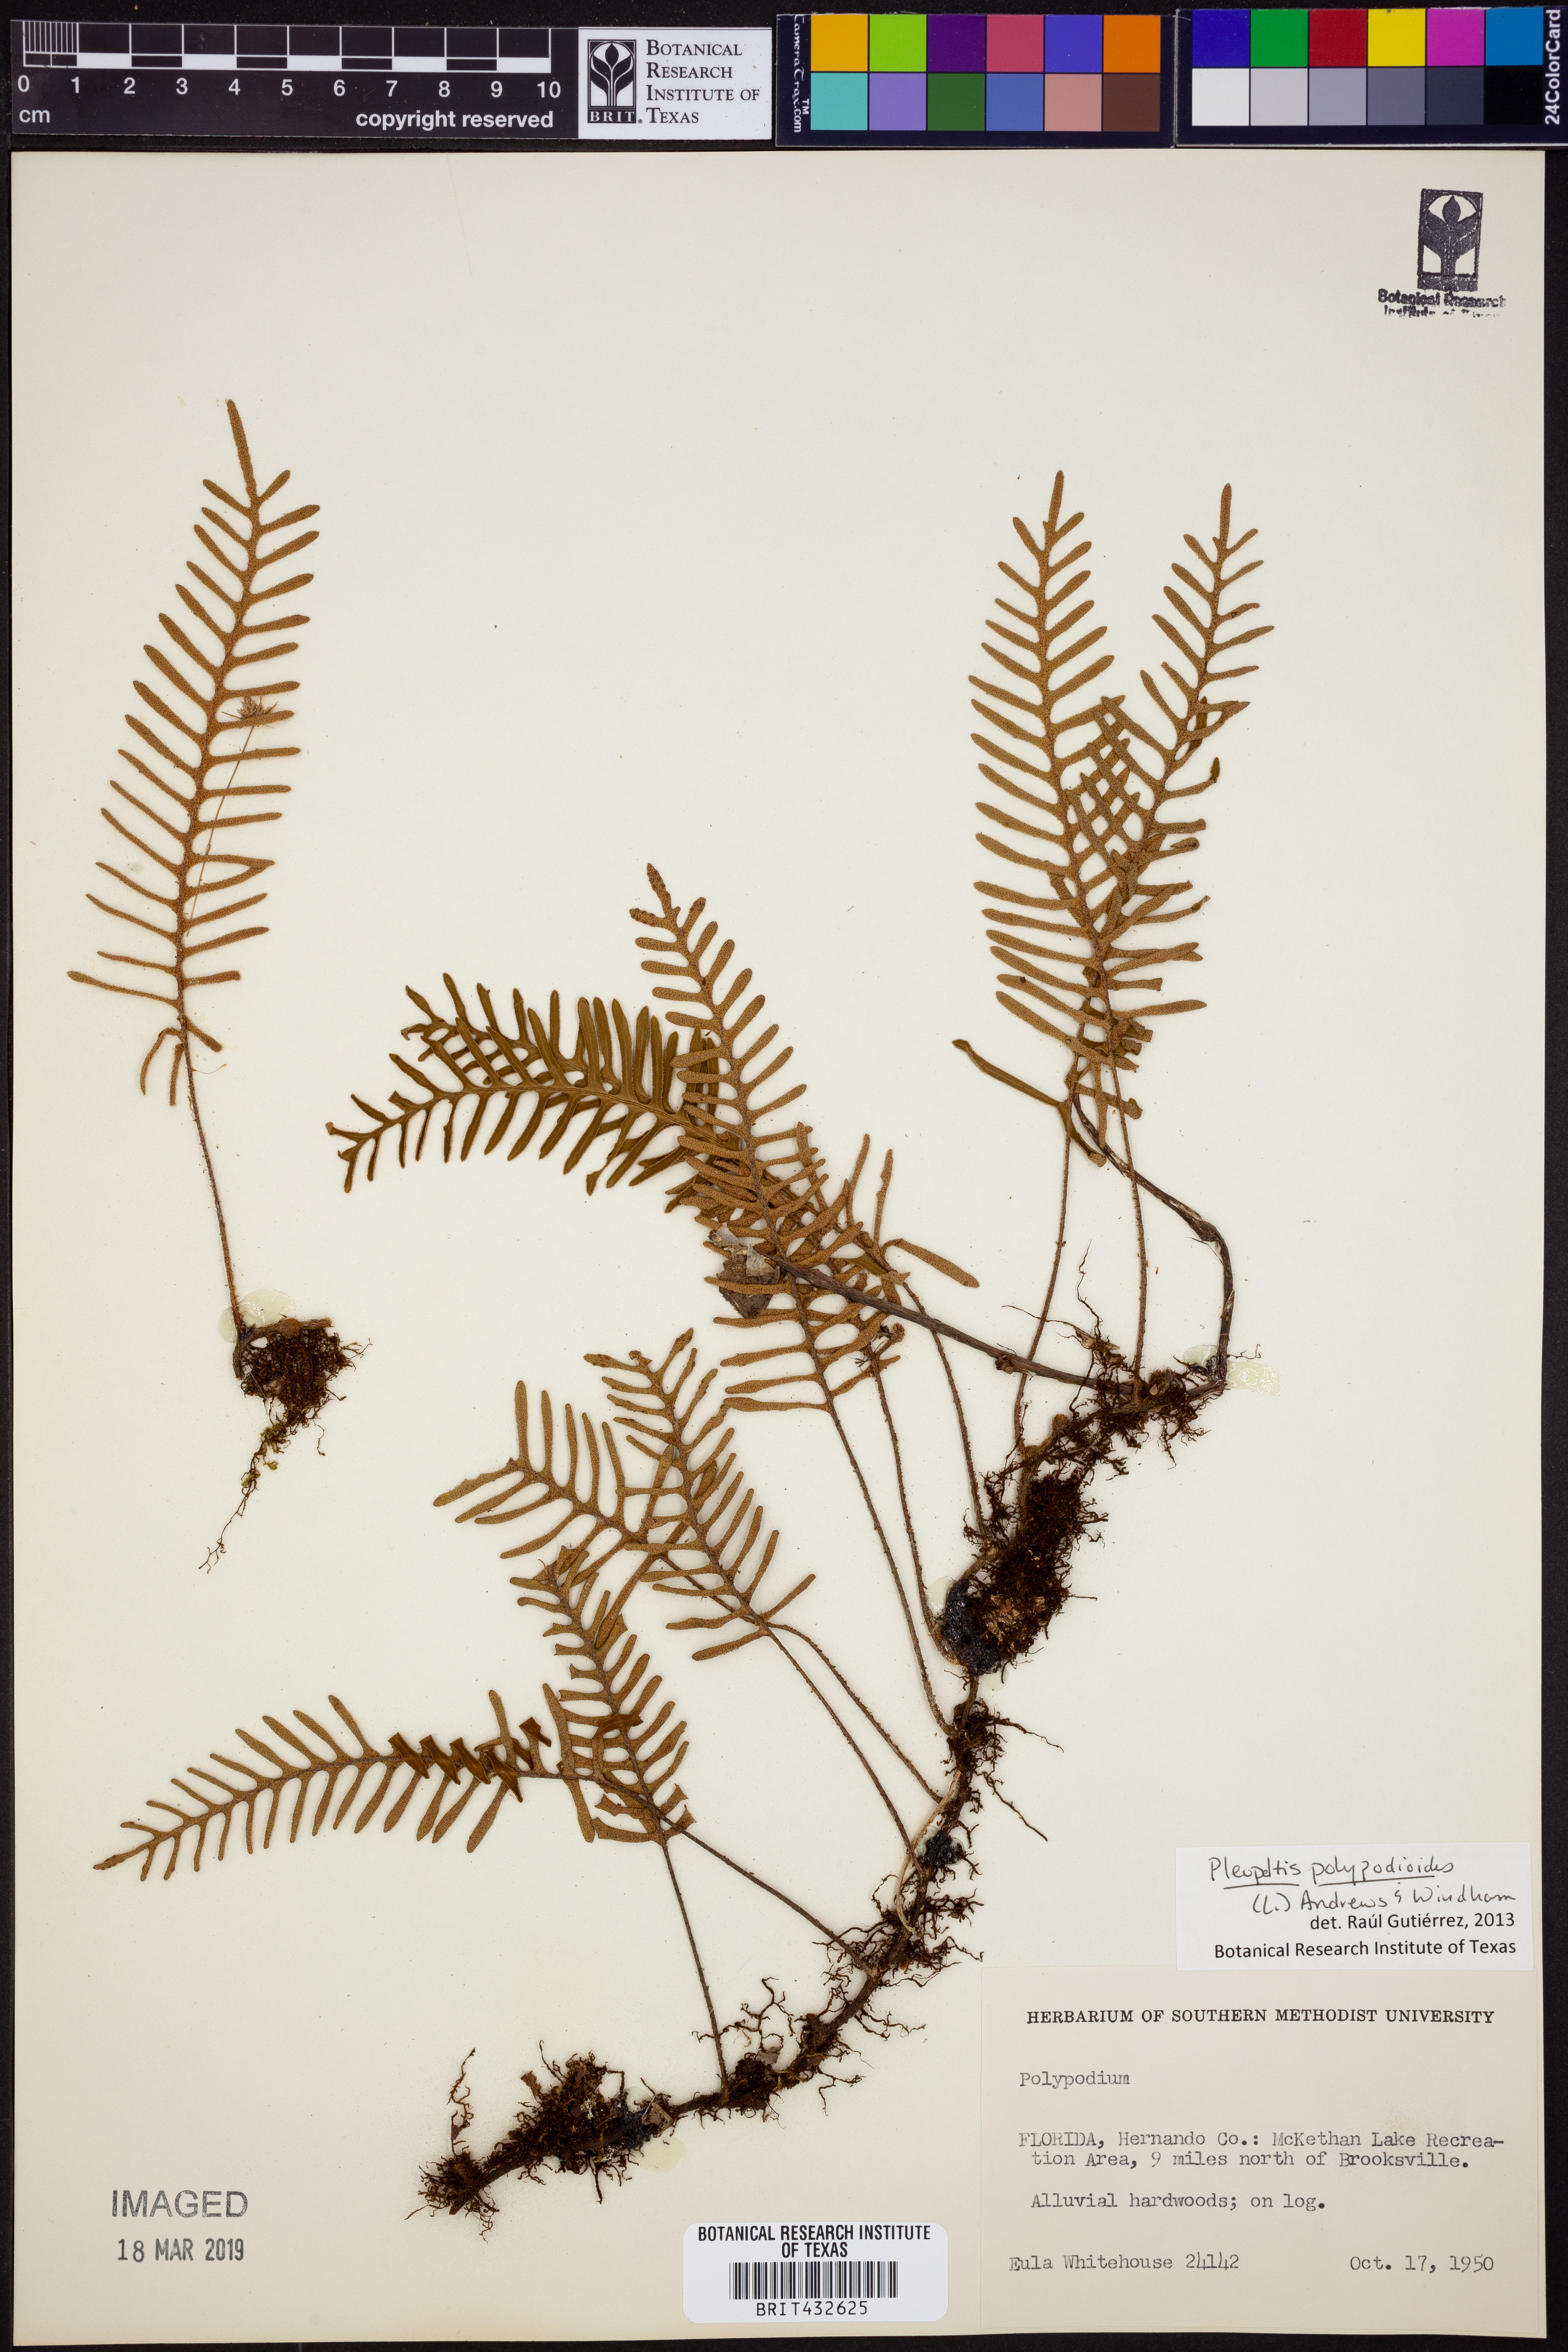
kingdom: Plantae
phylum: Tracheophyta
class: Polypodiopsida
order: Polypodiales
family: Polypodiaceae
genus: Pleopeltis
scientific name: Pleopeltis polypodioides
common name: Resurrection fern
